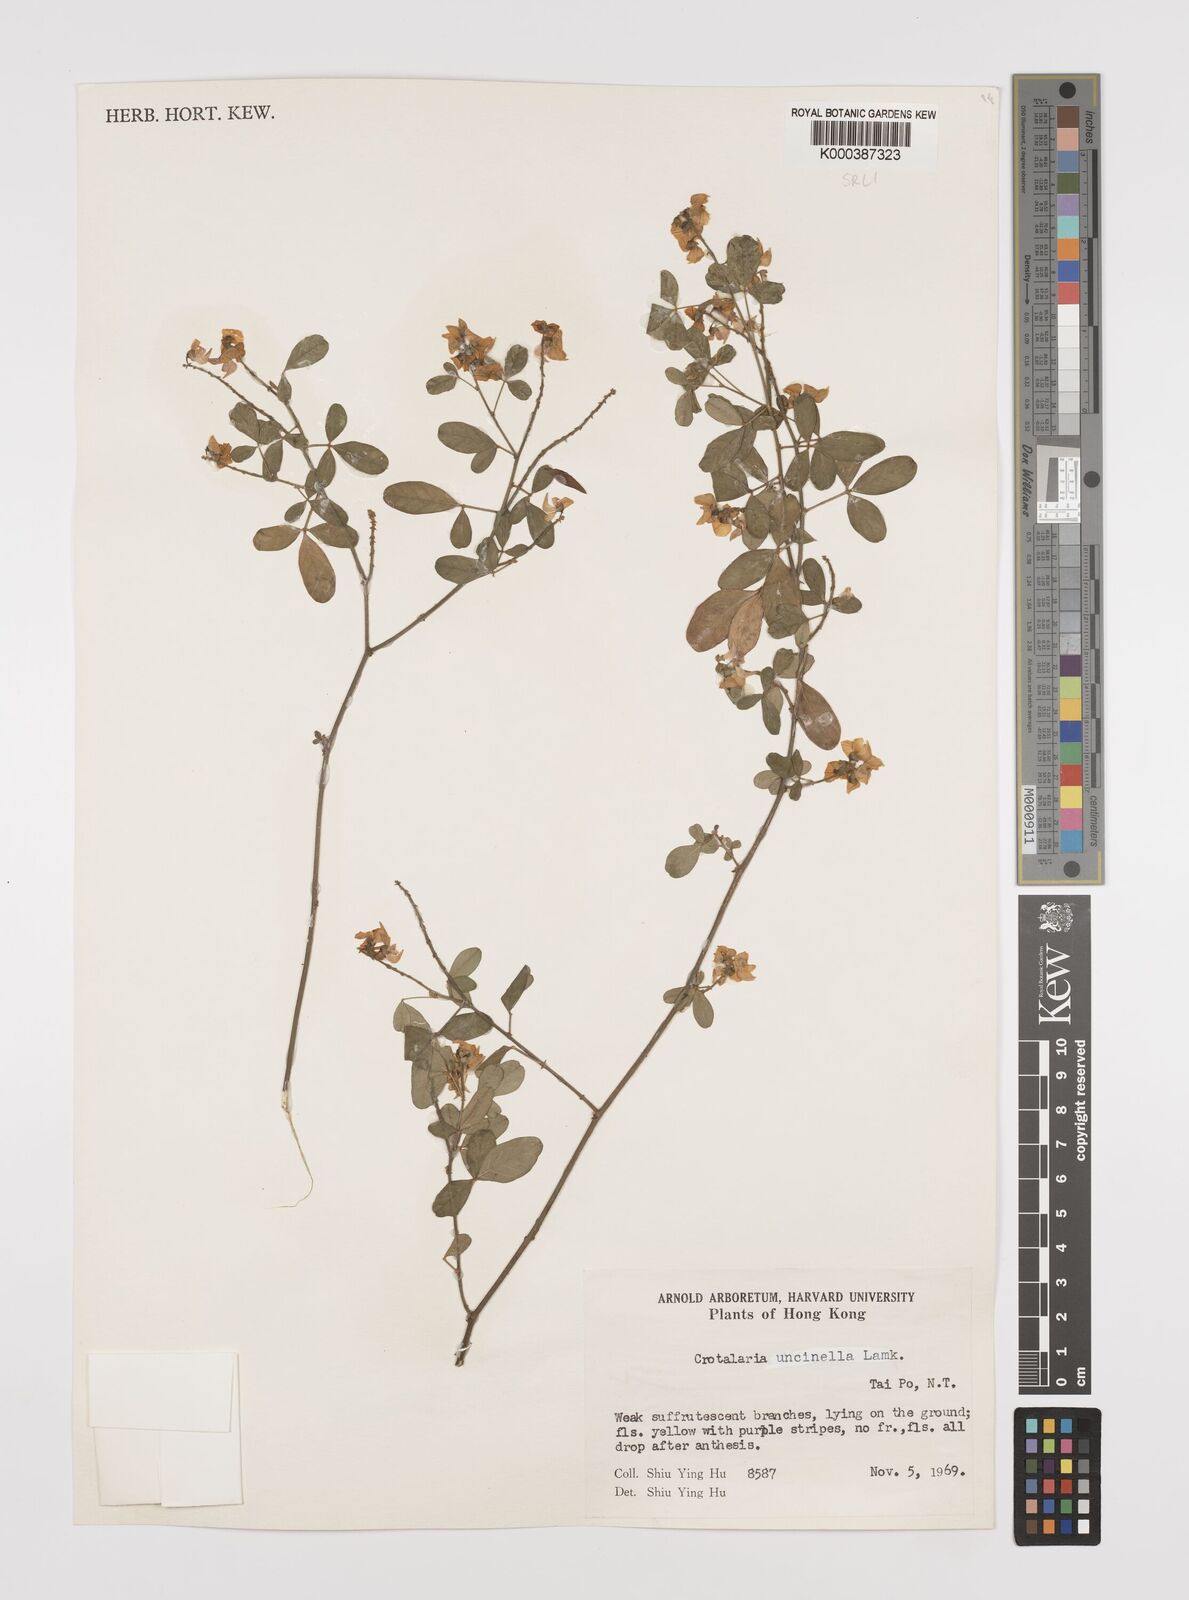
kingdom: Plantae
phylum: Tracheophyta
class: Magnoliopsida
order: Fabales
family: Fabaceae
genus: Crotalaria
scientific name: Crotalaria uncinella
